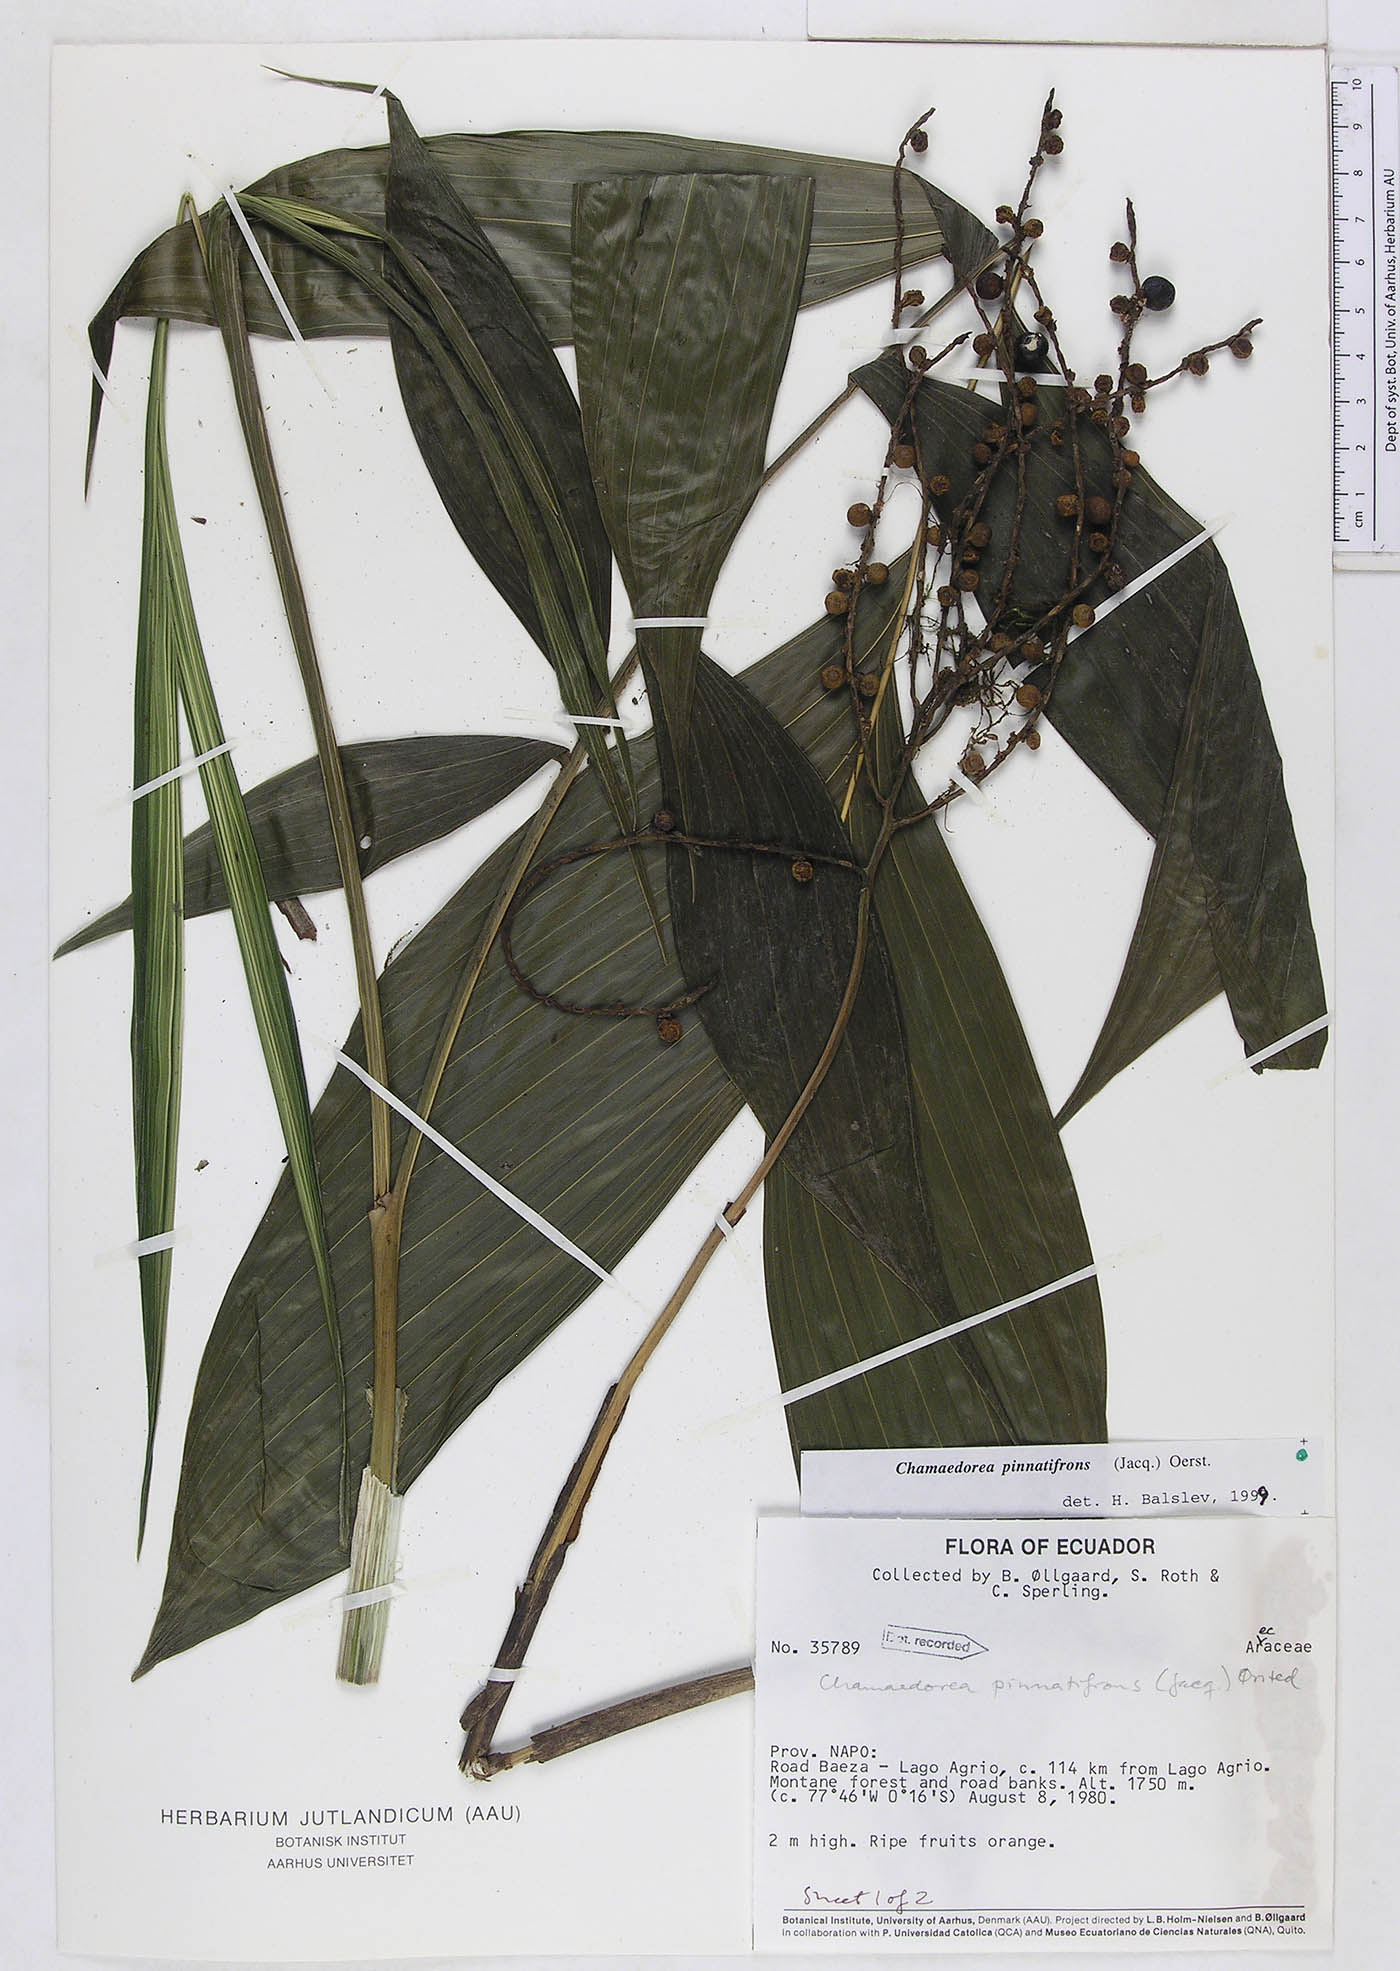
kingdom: Plantae
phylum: Tracheophyta
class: Liliopsida
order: Arecales
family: Arecaceae
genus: Chamaedorea
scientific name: Chamaedorea pinnatifrons
